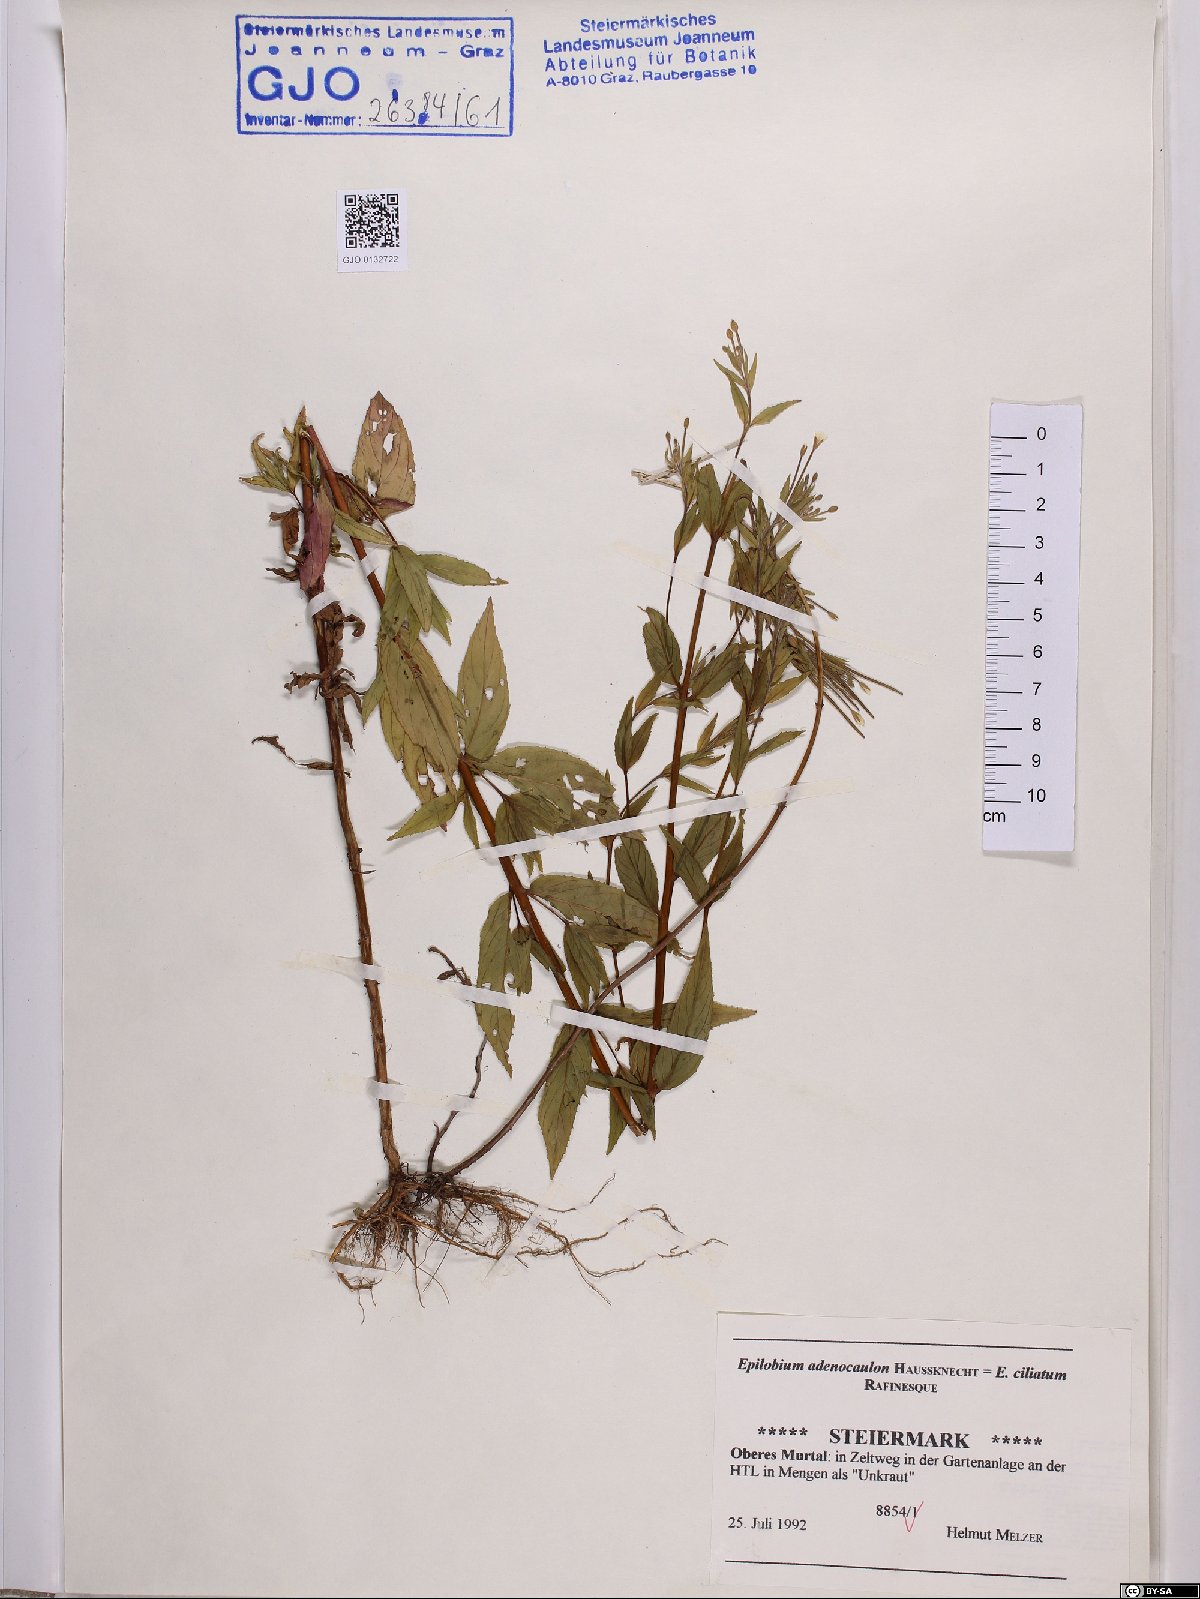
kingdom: Plantae
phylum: Tracheophyta
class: Magnoliopsida
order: Myrtales
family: Onagraceae
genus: Epilobium
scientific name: Epilobium ciliatum
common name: American willowherb
